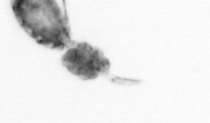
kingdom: Animalia
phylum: Arthropoda
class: Copepoda
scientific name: Copepoda
